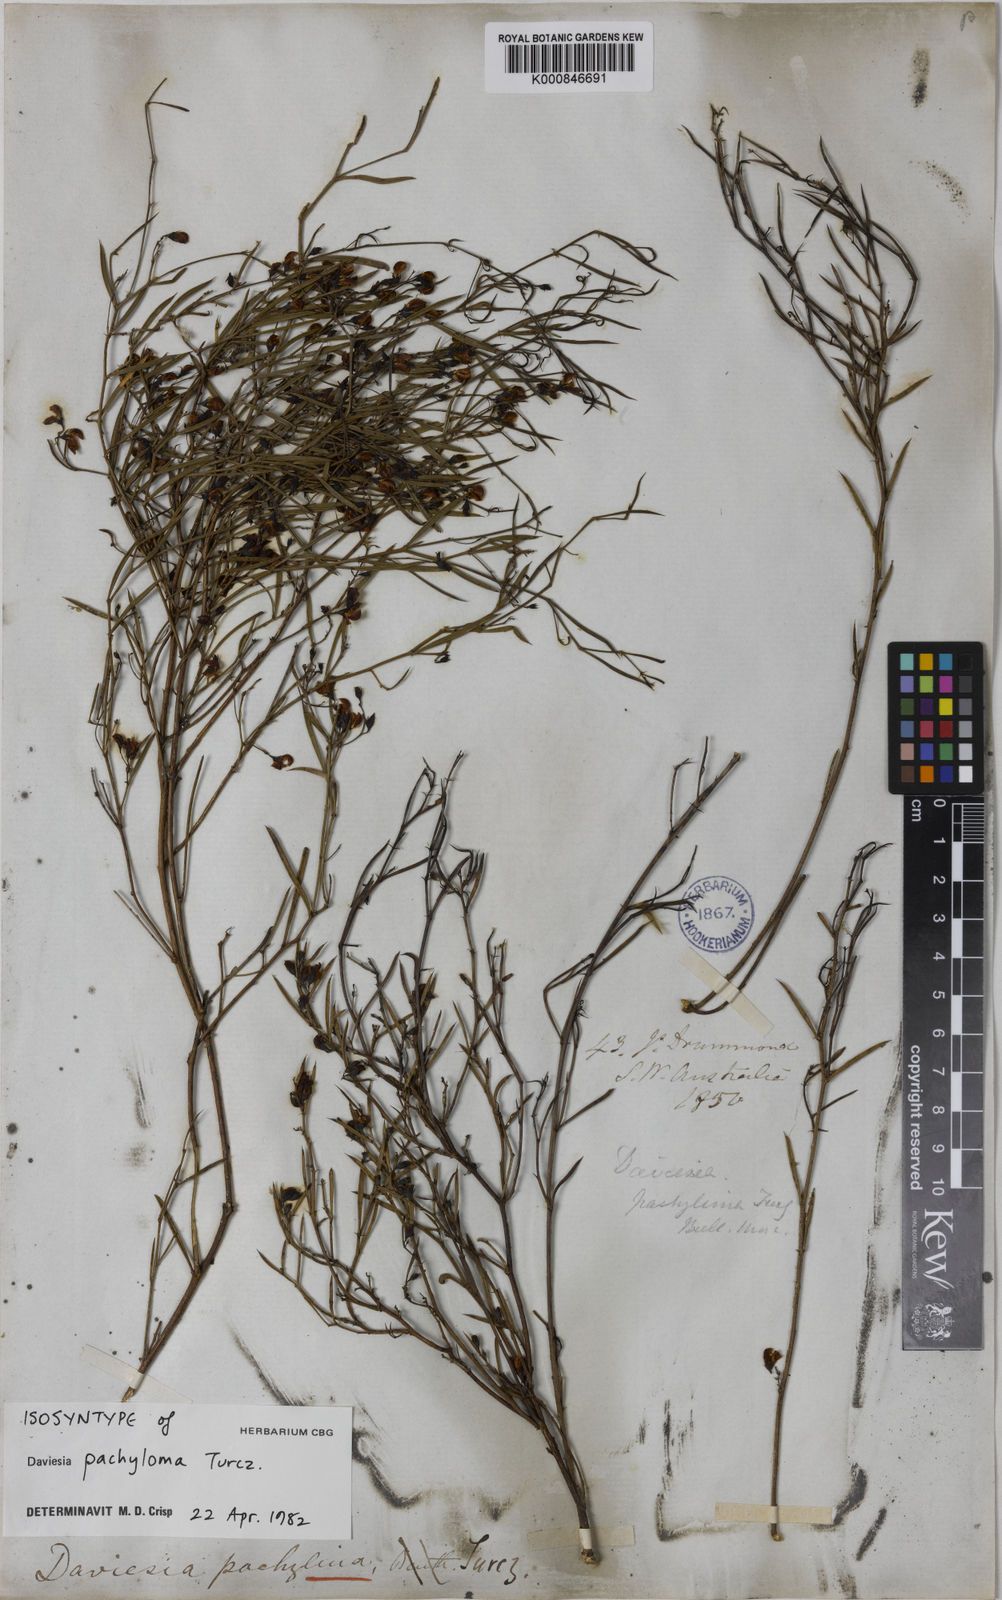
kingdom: Plantae
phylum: Tracheophyta
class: Magnoliopsida
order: Fabales
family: Fabaceae
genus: Daviesia
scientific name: Daviesia
